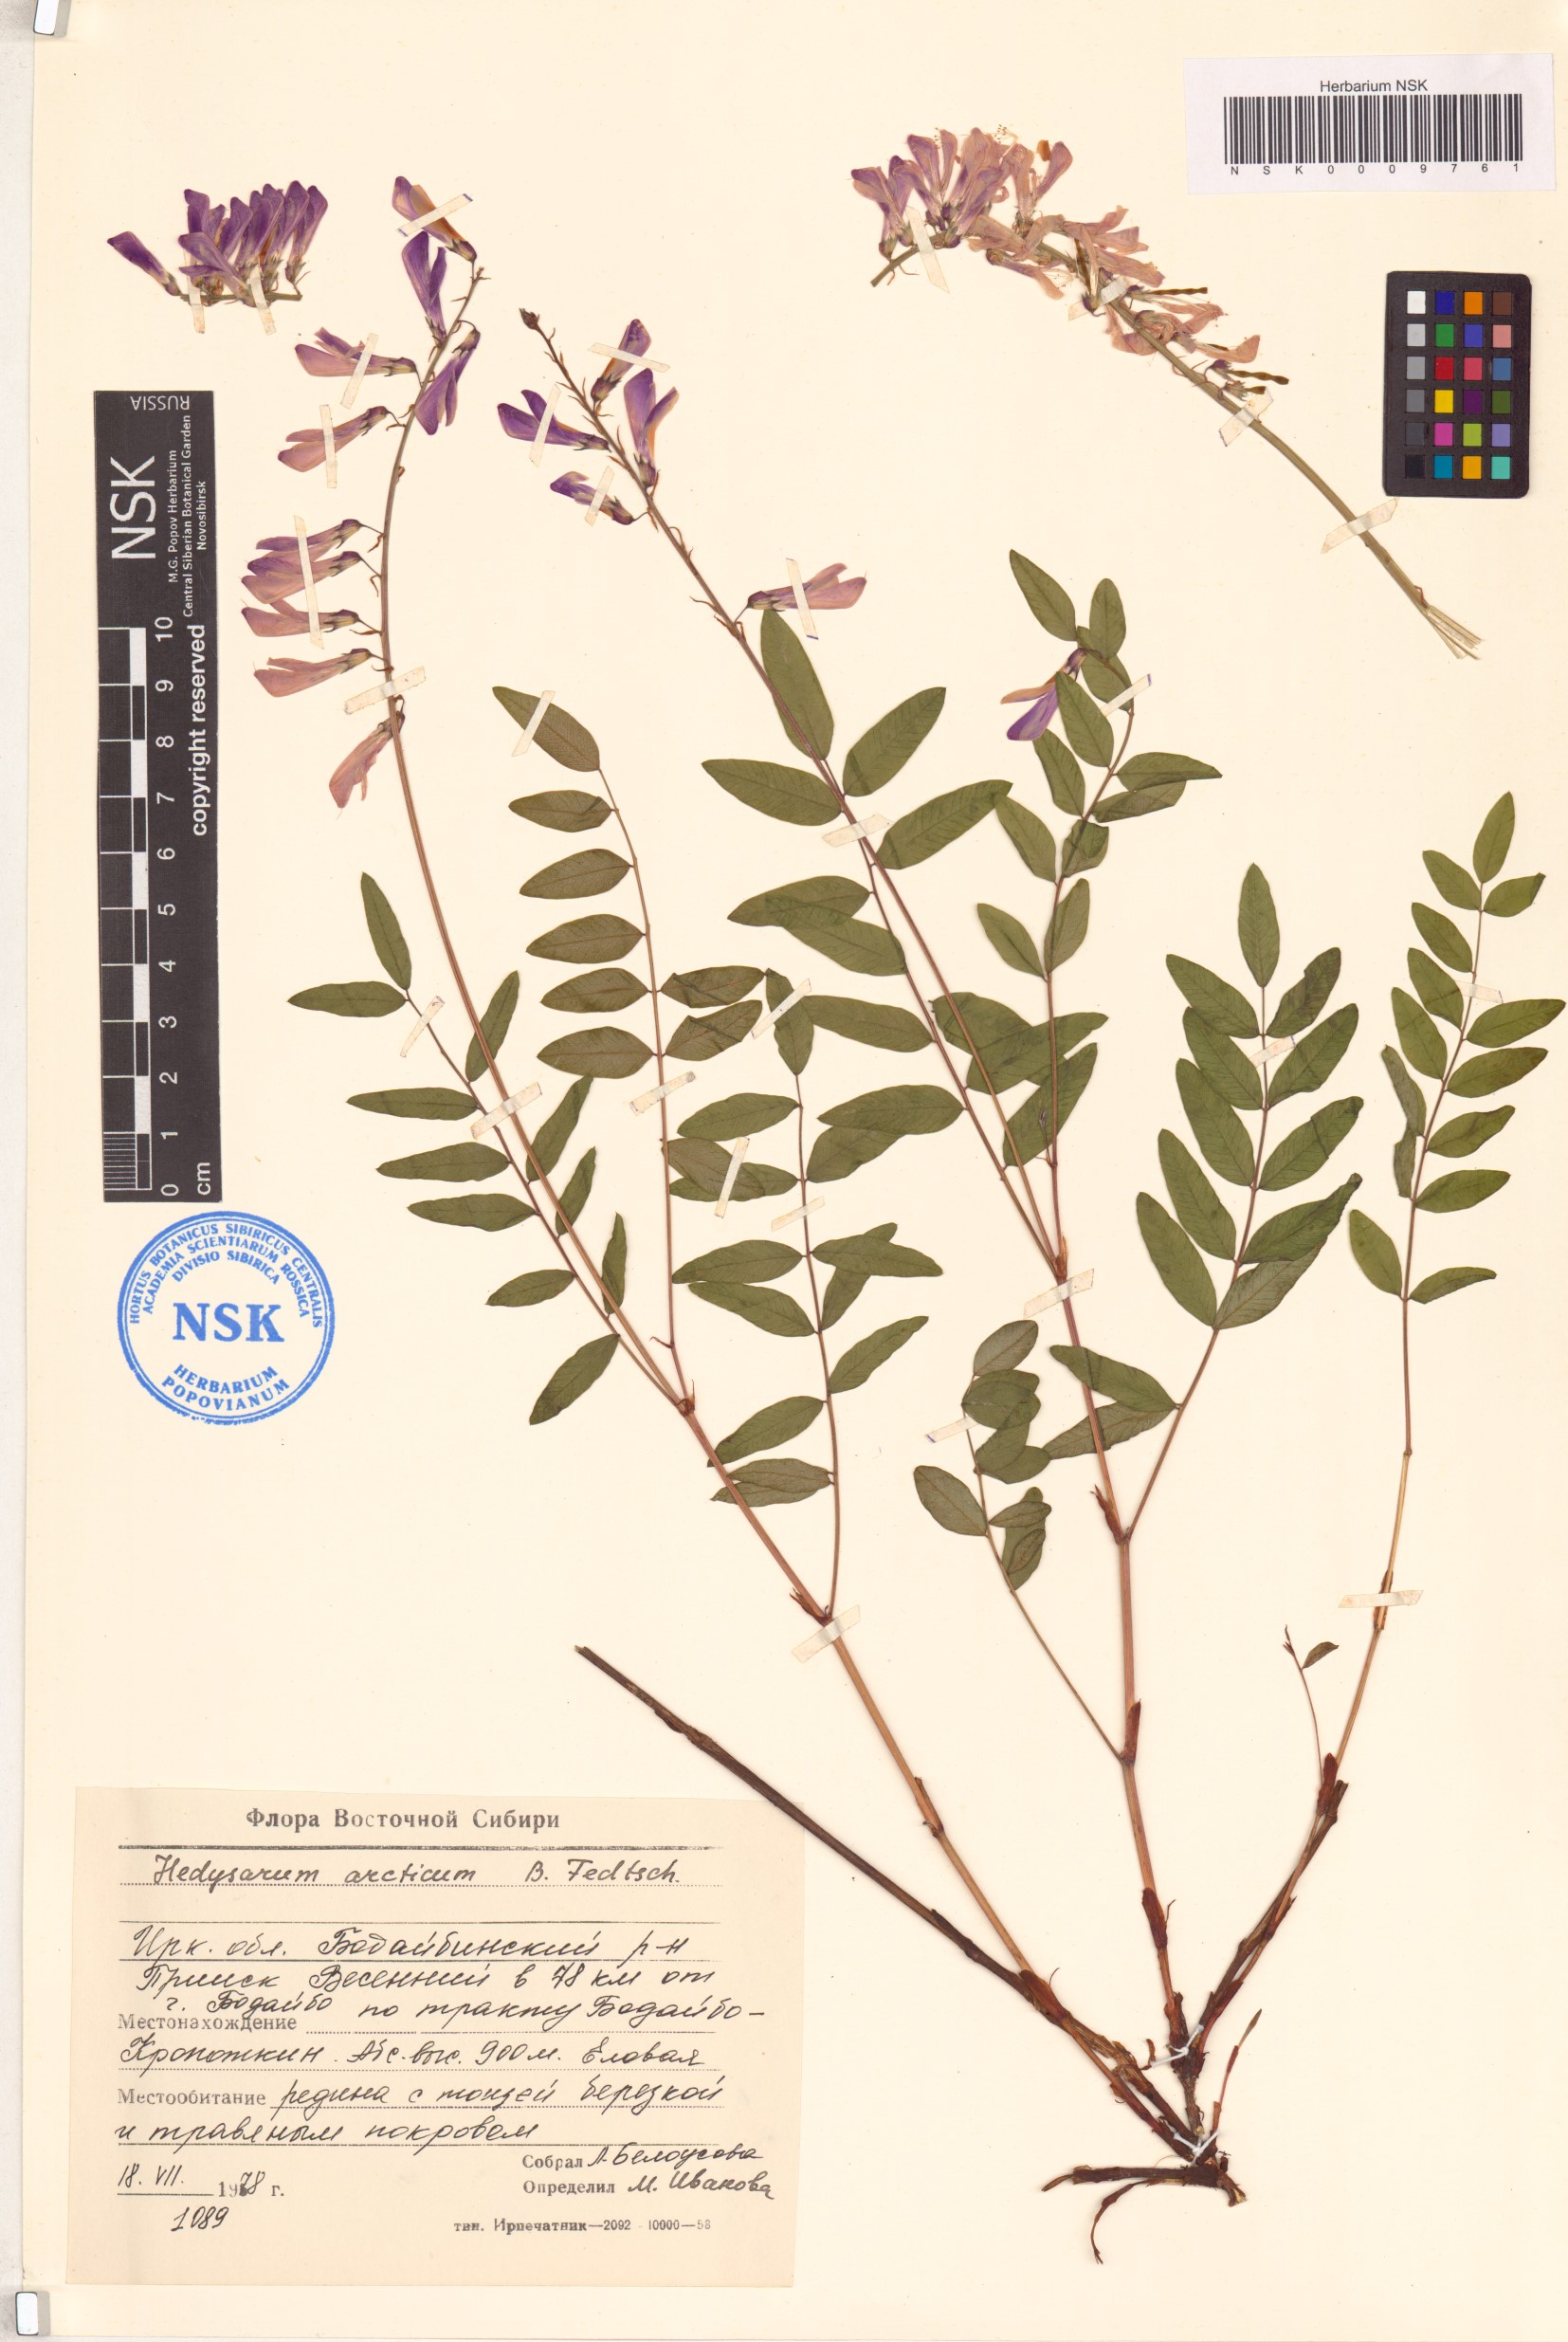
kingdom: Plantae
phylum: Tracheophyta
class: Magnoliopsida
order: Fabales
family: Fabaceae
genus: Hedysarum
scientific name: Hedysarum hedysaroides
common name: Alpine french-honeysuckle
